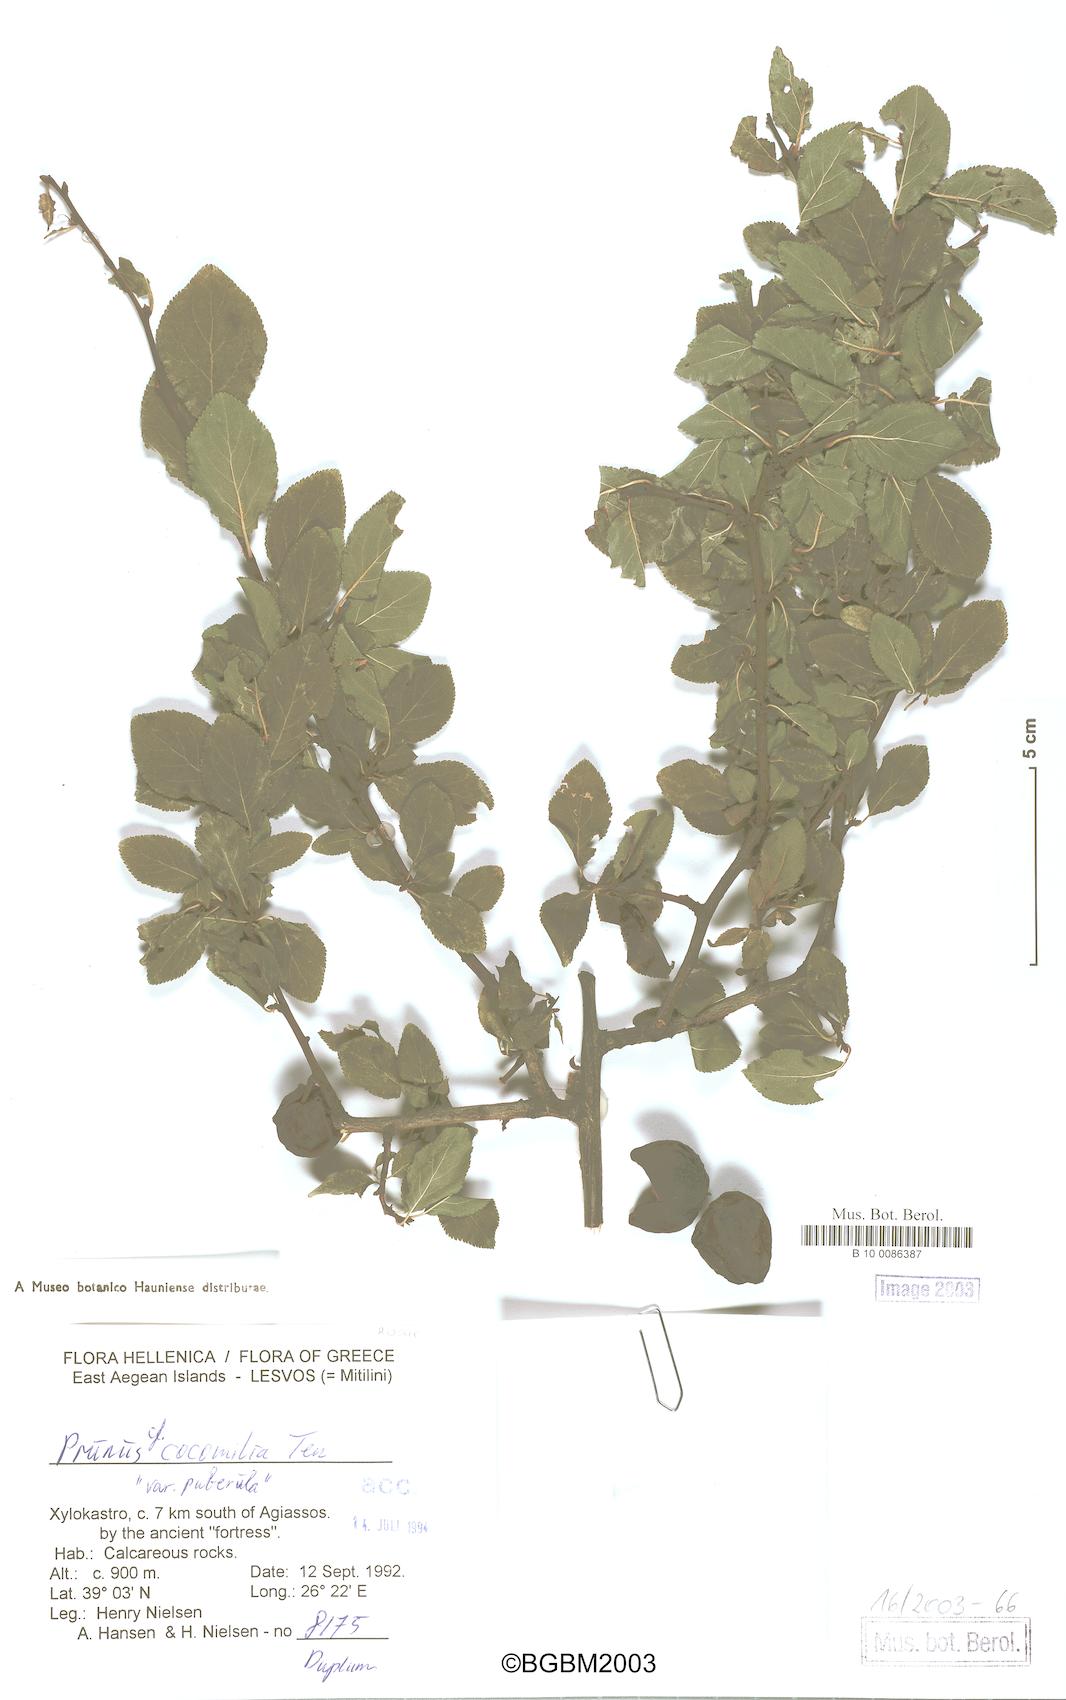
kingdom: Plantae
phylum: Tracheophyta
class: Magnoliopsida
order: Rosales
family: Rosaceae
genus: Prunus
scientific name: Prunus cocomilia
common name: Italian plum
